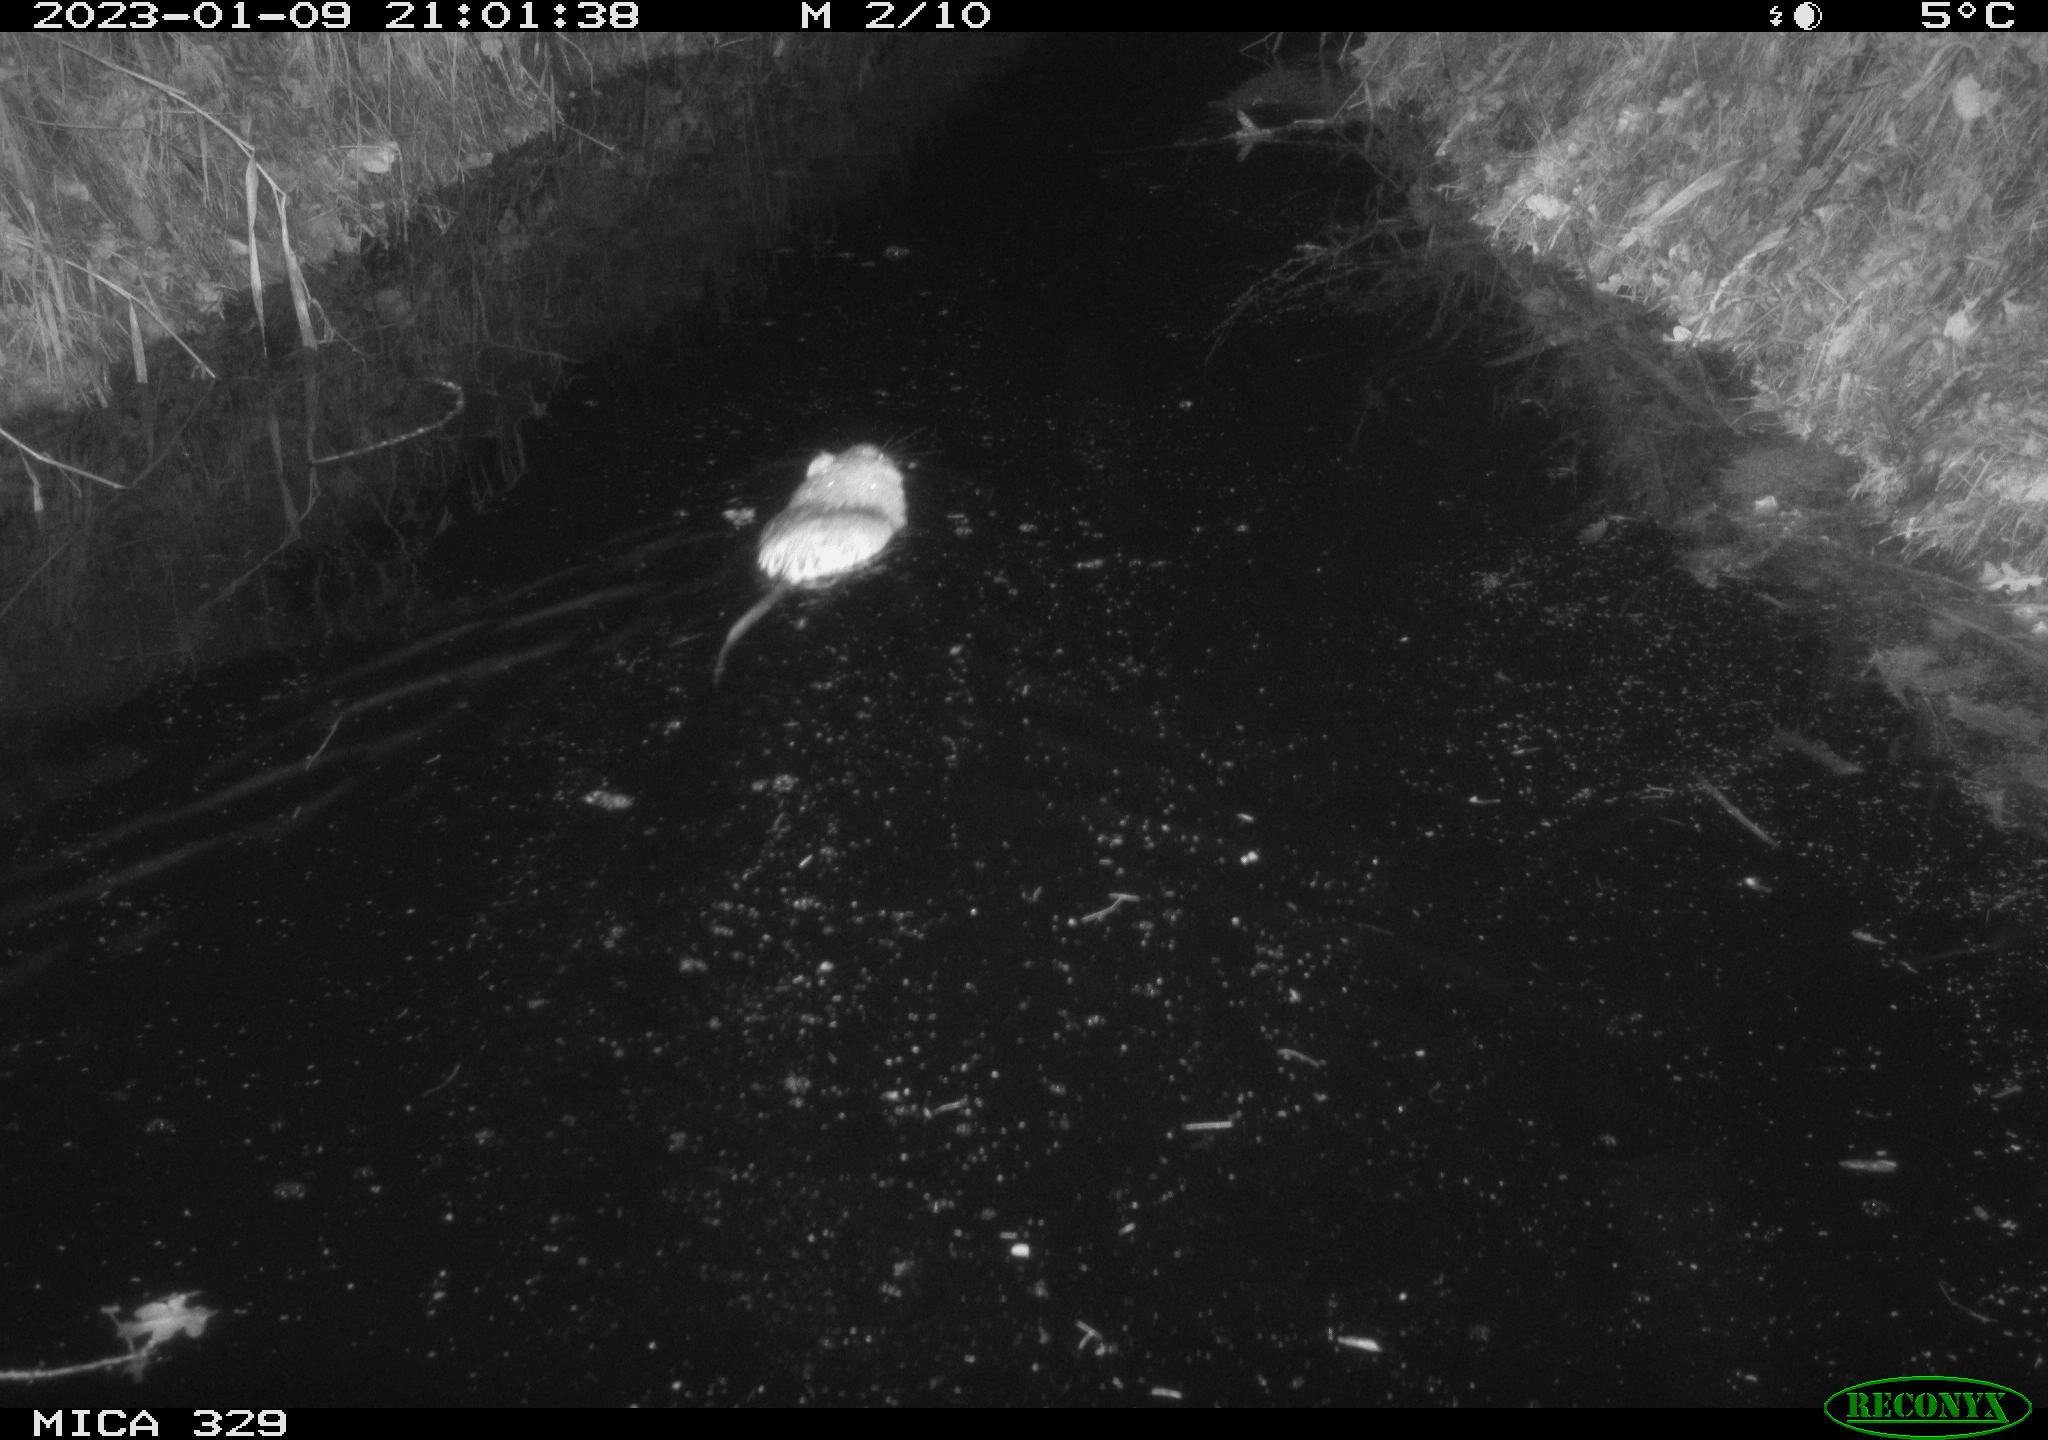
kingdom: Animalia
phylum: Chordata
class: Mammalia
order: Rodentia
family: Cricetidae
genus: Ondatra
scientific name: Ondatra zibethicus
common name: Muskrat
